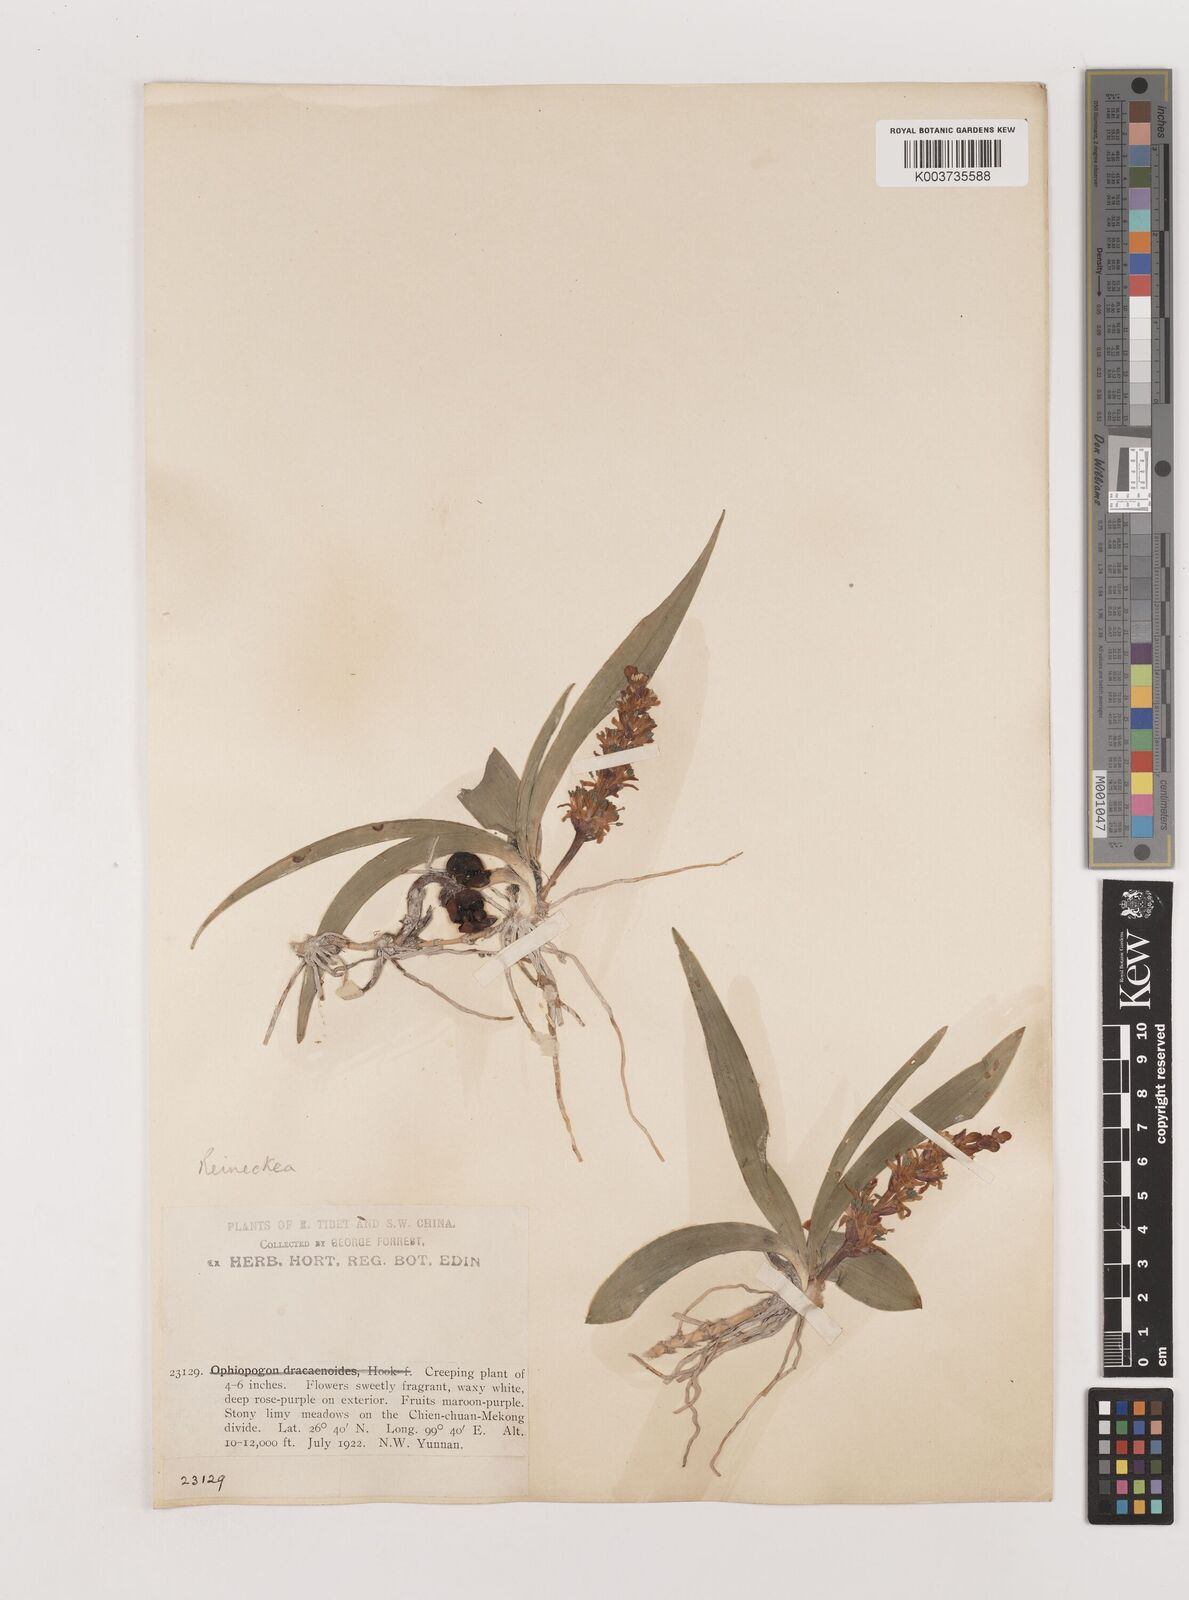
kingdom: Plantae
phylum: Tracheophyta
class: Liliopsida
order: Asparagales
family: Asparagaceae
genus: Reineckea
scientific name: Reineckea carnea
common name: Reineckea
